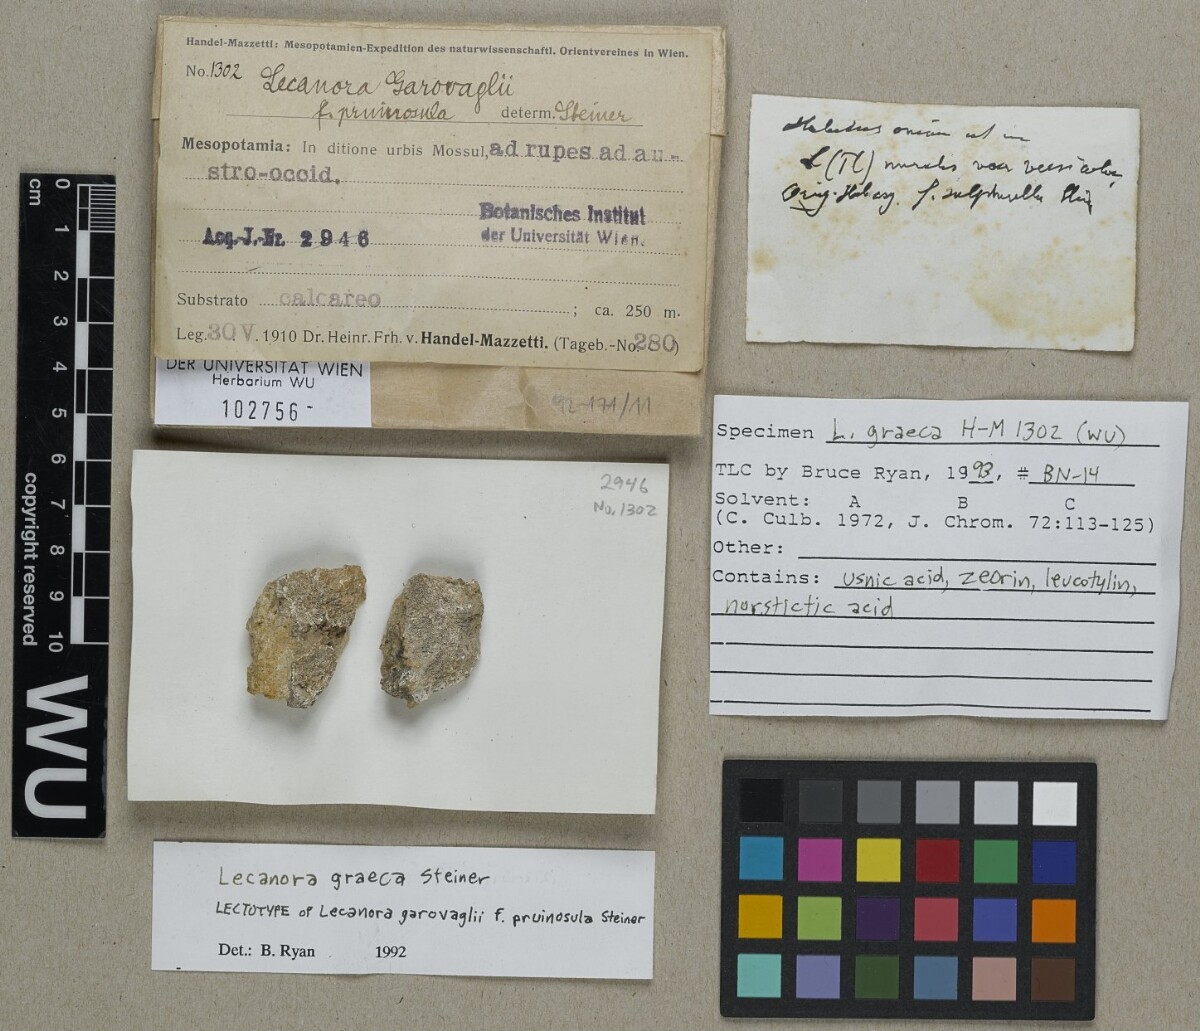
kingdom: Fungi
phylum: Ascomycota
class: Lecanoromycetes
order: Lecanorales
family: Lecanoraceae
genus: Protoparmeliopsis
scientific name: Protoparmeliopsis garovaglii
